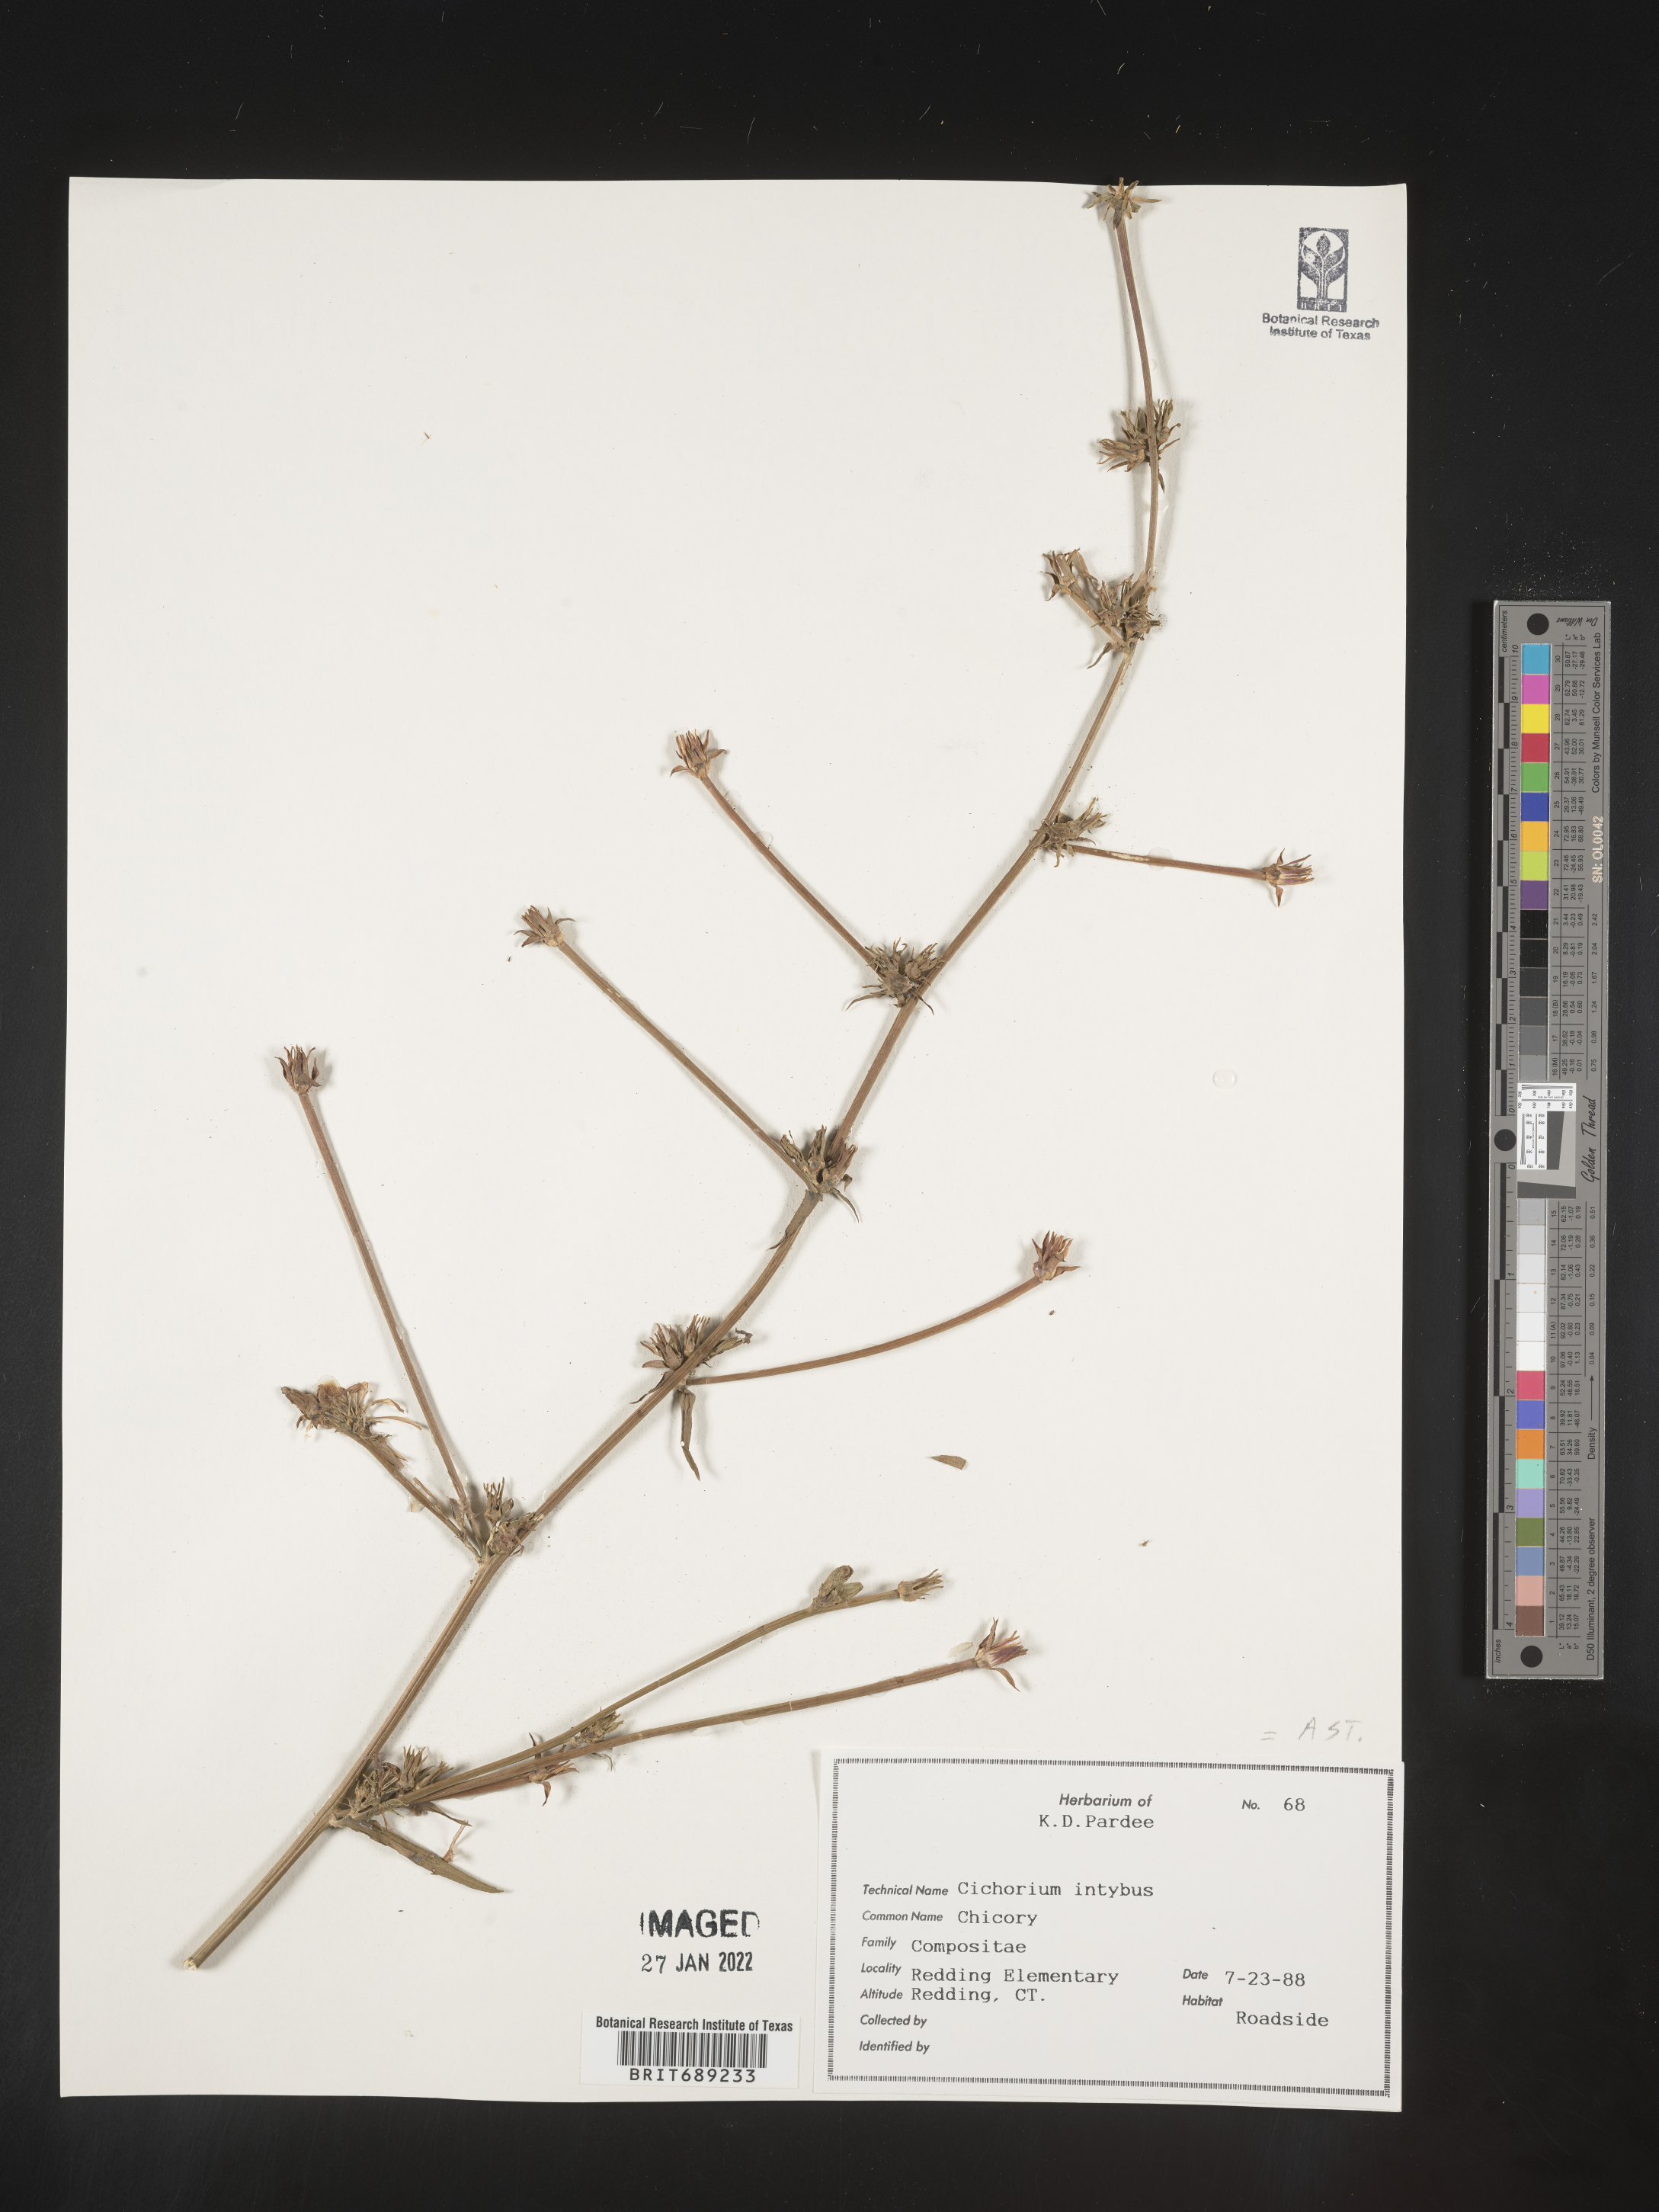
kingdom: Plantae
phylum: Tracheophyta
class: Magnoliopsida
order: Asterales
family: Asteraceae
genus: Cichorium
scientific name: Cichorium intybus
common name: Chicory
